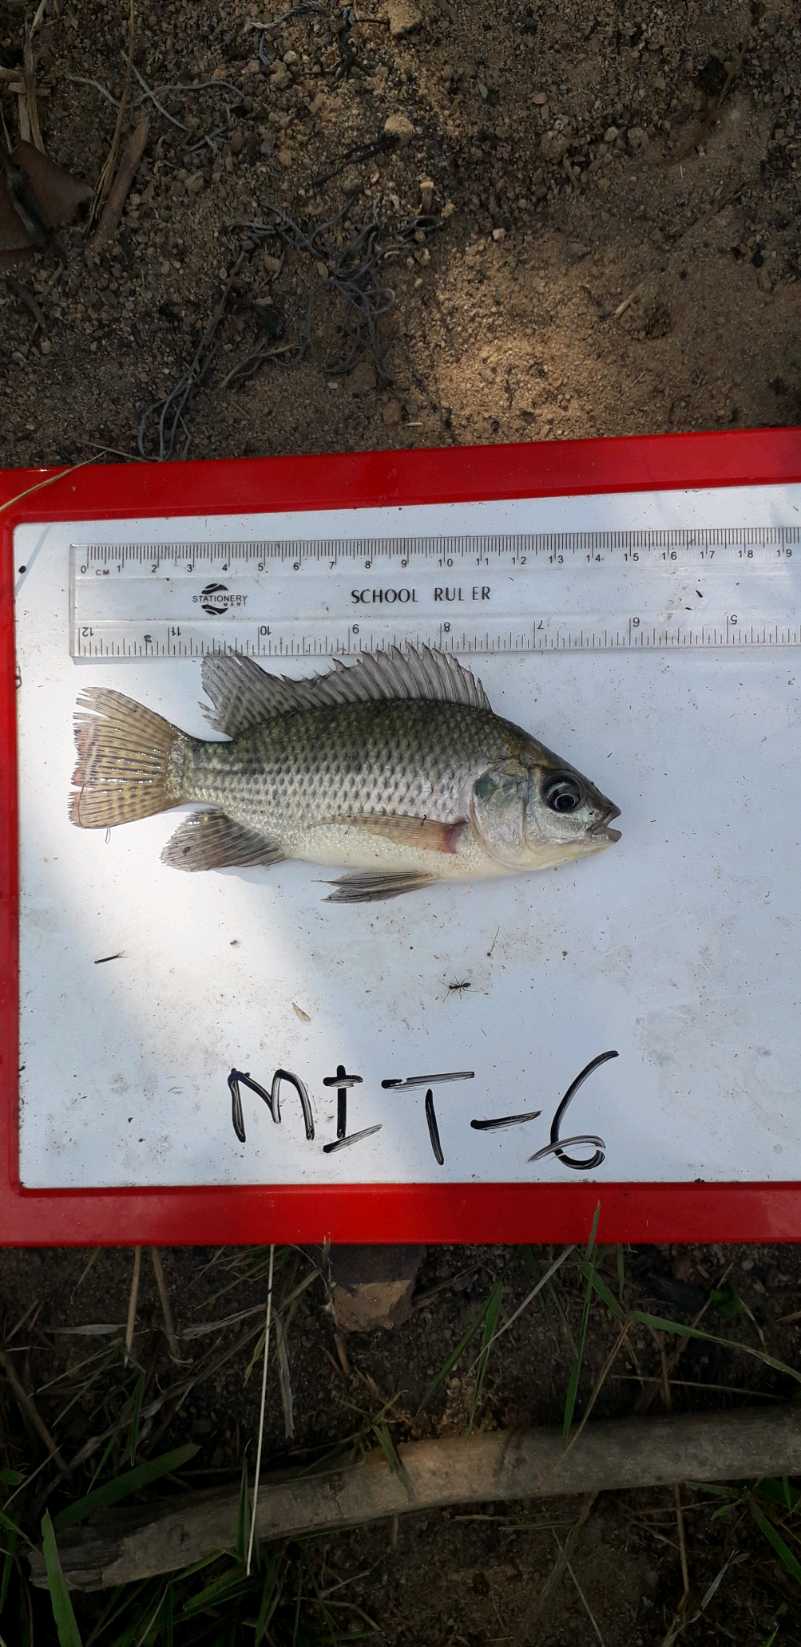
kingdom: Animalia
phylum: Chordata
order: Perciformes
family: Cichlidae
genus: Oreochromis
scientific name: Oreochromis niloticus
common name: Nile tilapia
